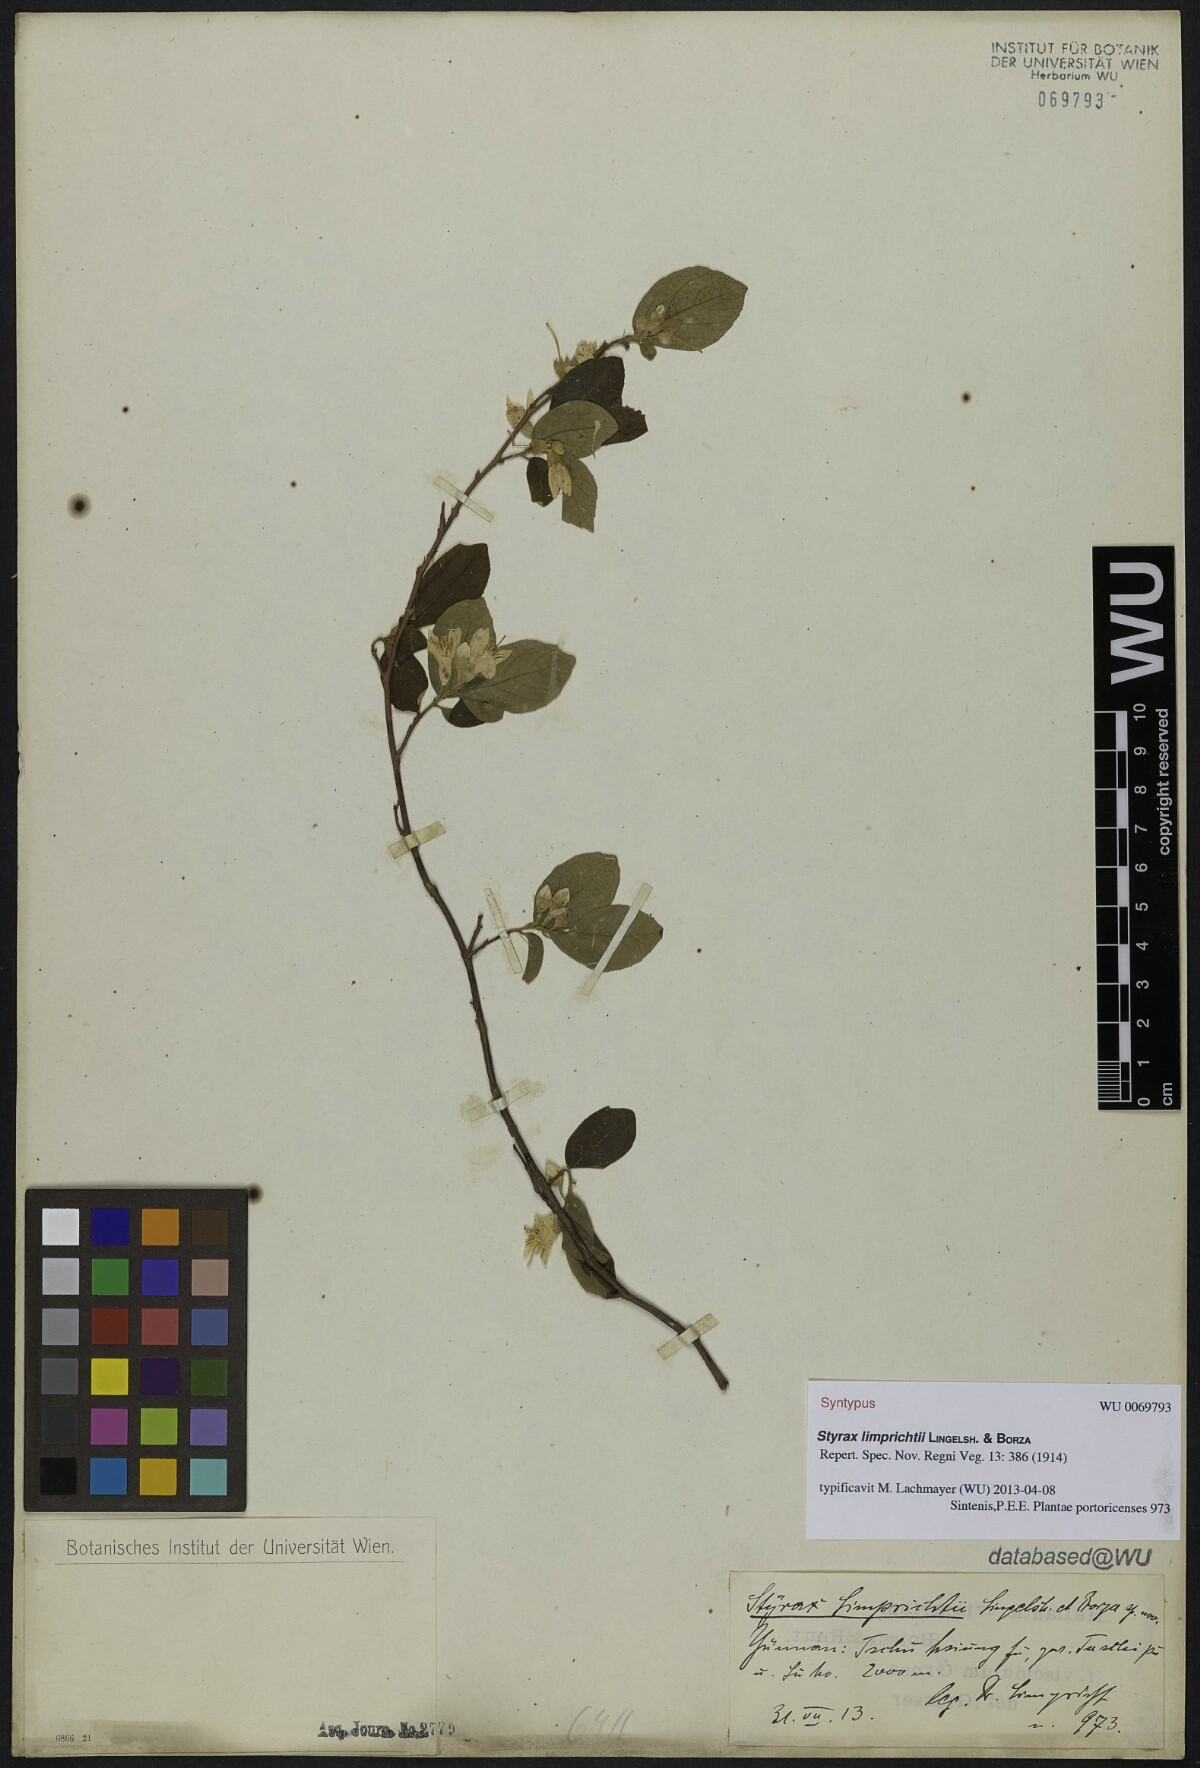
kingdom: Plantae
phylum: Tracheophyta
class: Magnoliopsida
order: Ericales
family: Styracaceae
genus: Styrax
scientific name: Styrax limprichtii
